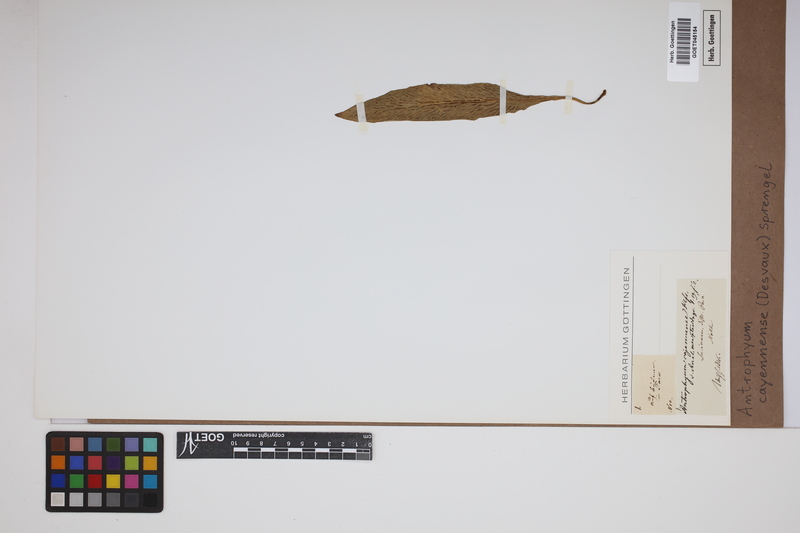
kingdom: Plantae
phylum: Tracheophyta
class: Polypodiopsida
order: Polypodiales
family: Pteridaceae
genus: Polytaenium
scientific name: Polytaenium cajenense
